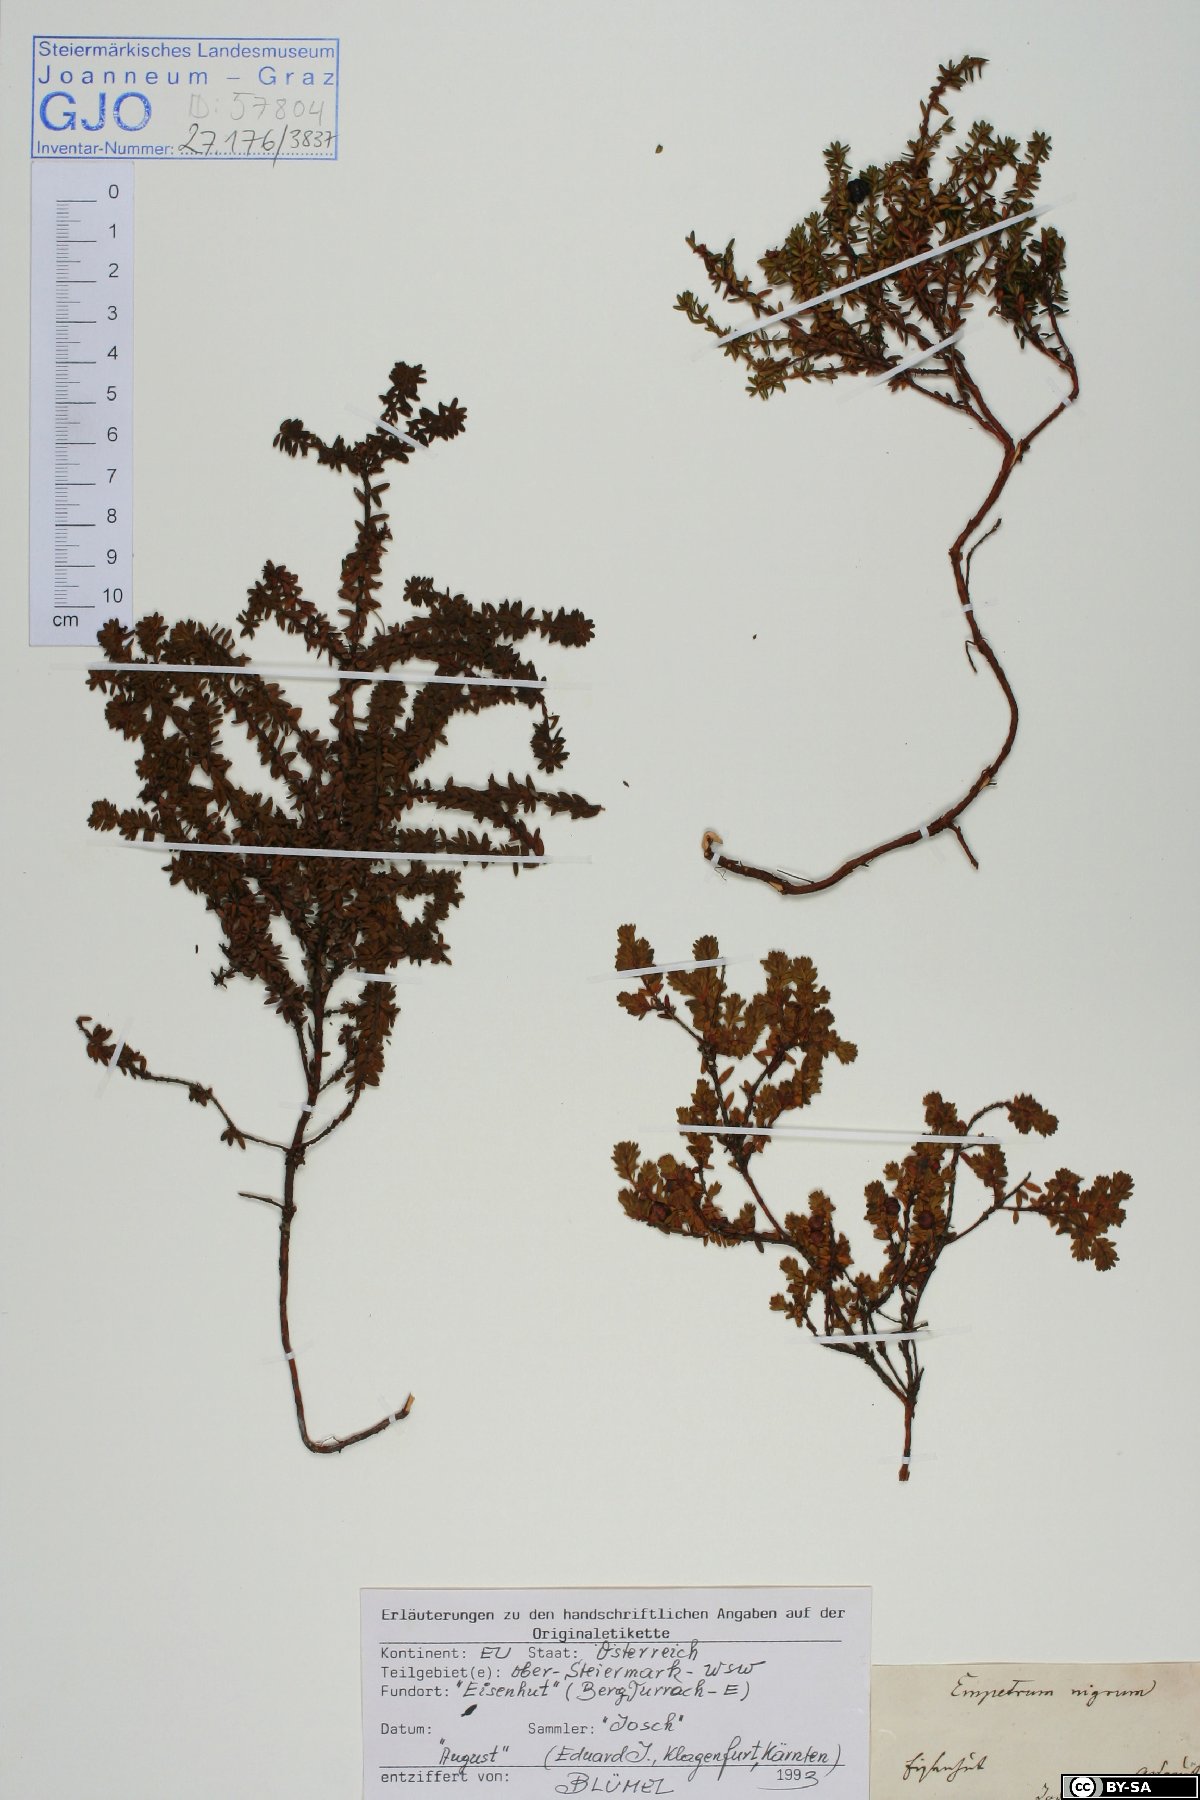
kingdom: Plantae
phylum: Tracheophyta
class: Magnoliopsida
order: Ericales
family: Ericaceae
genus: Empetrum
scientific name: Empetrum hermaphroditum
